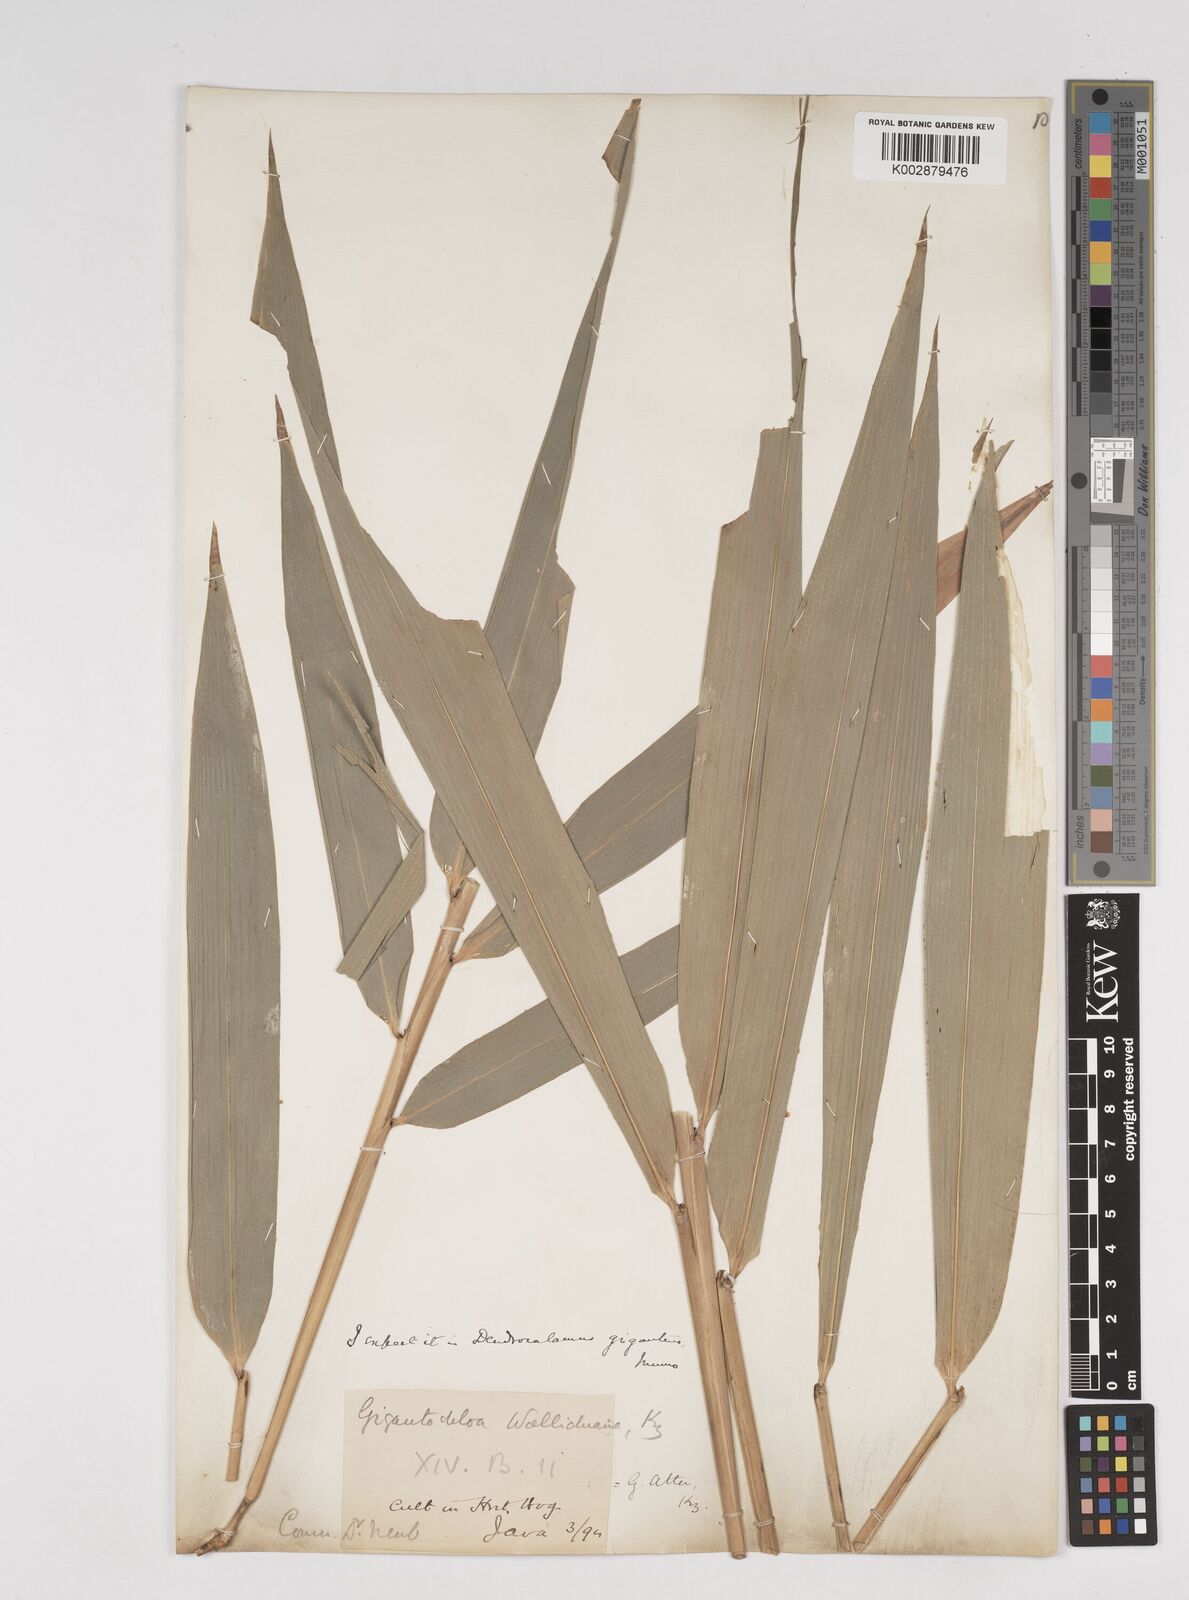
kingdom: Plantae
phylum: Tracheophyta
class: Liliopsida
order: Poales
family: Poaceae
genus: Dendrocalamus
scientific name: Dendrocalamus
